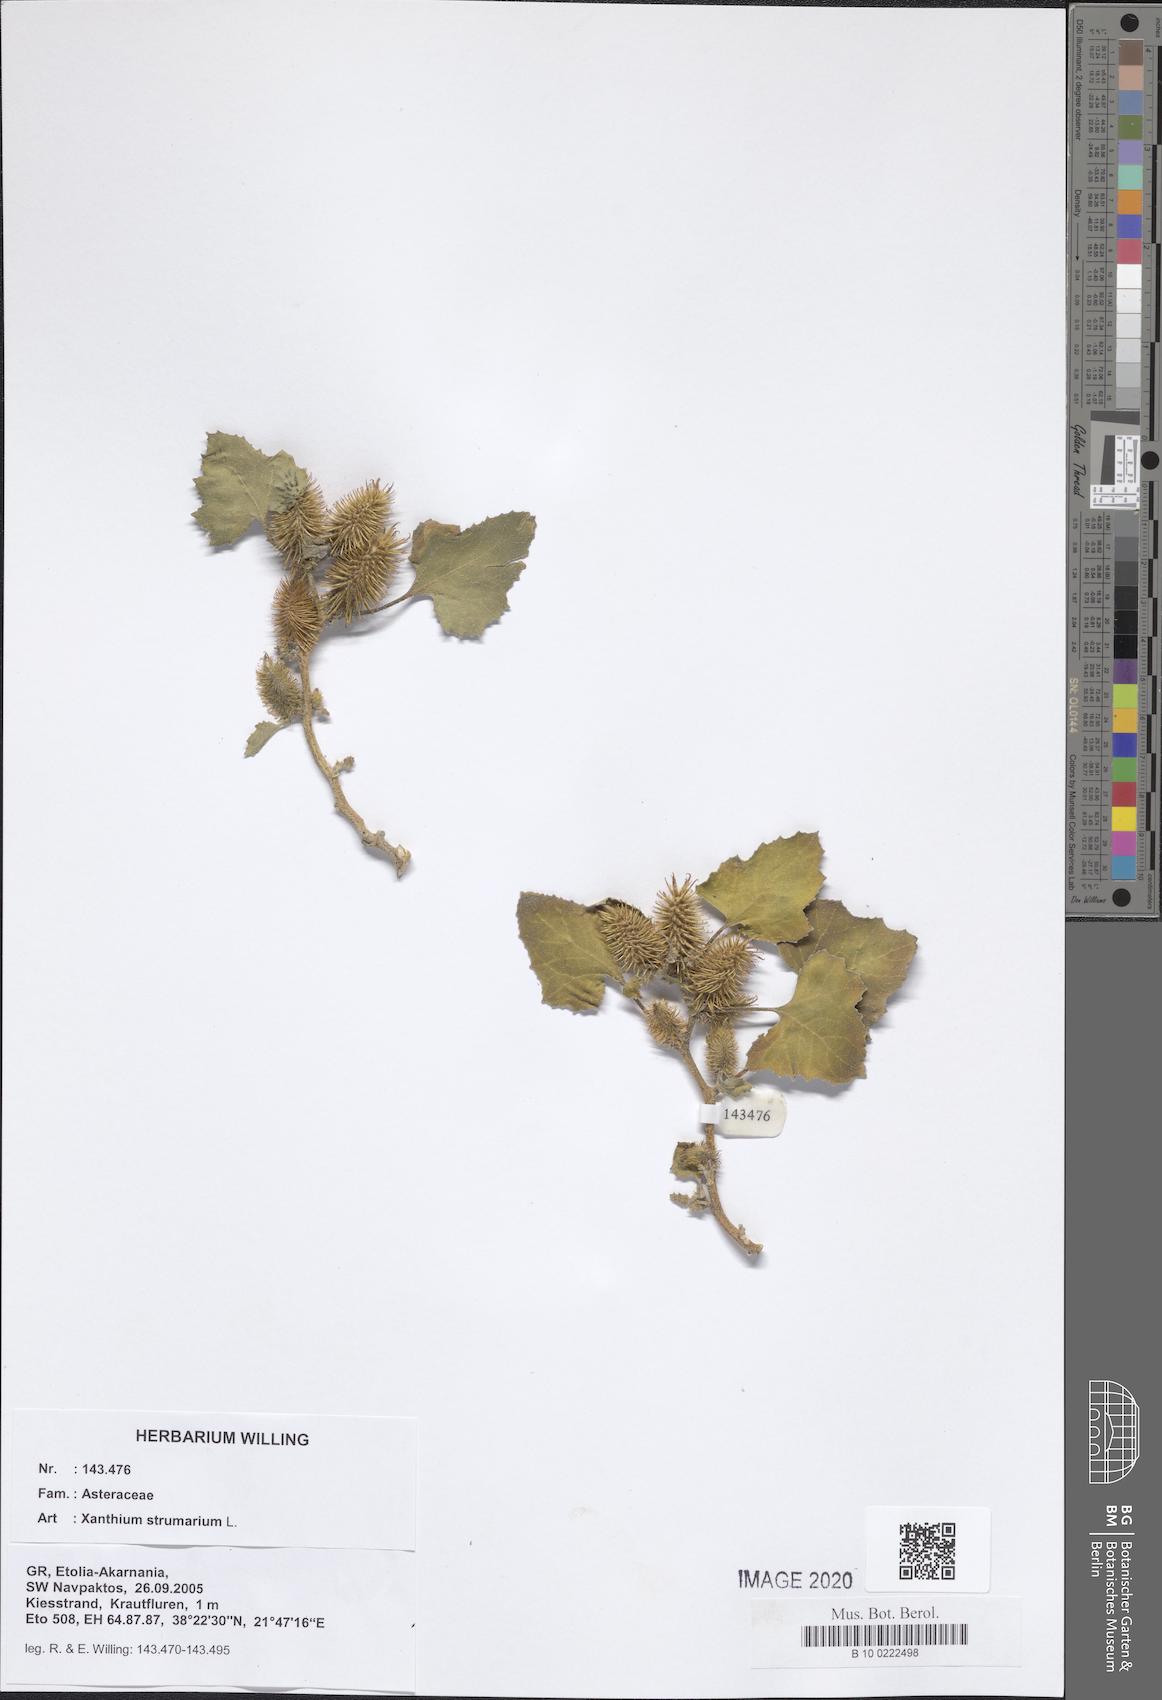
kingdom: Plantae
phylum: Tracheophyta
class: Magnoliopsida
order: Asterales
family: Asteraceae
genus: Xanthium
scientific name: Xanthium strumarium
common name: Rough cocklebur
